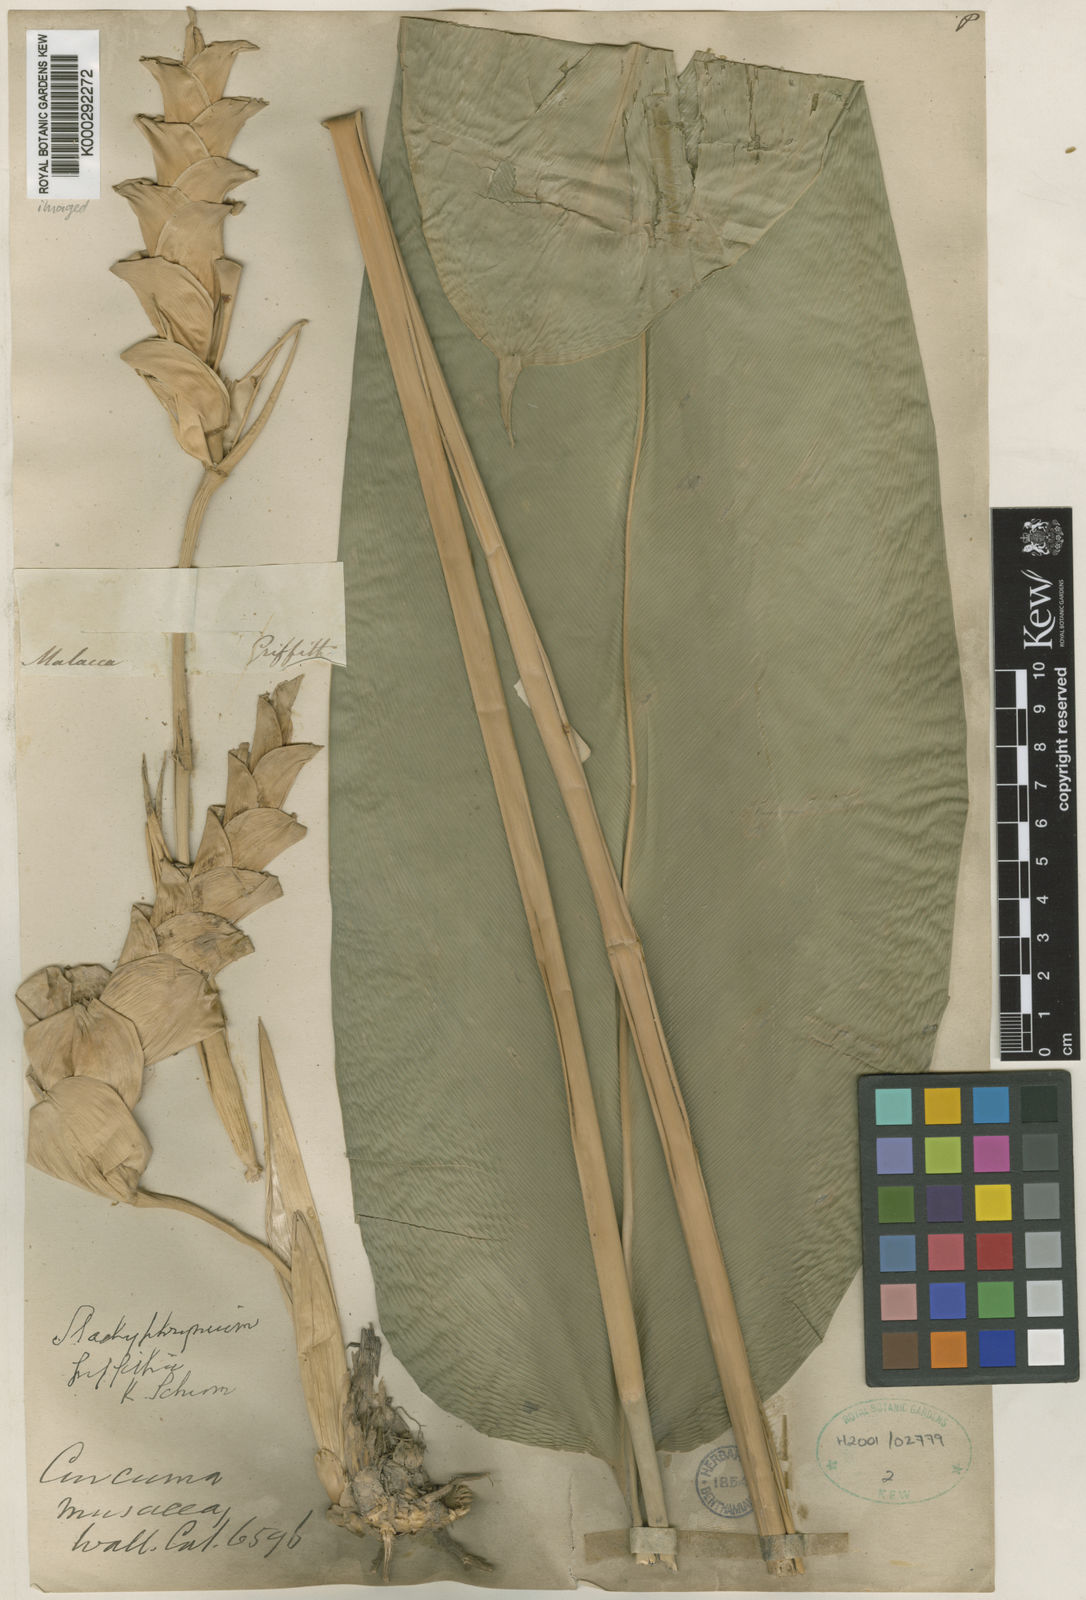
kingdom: Plantae
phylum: Tracheophyta
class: Liliopsida
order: Zingiberales
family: Marantaceae
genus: Stachyphrynium
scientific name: Stachyphrynium latifolium
